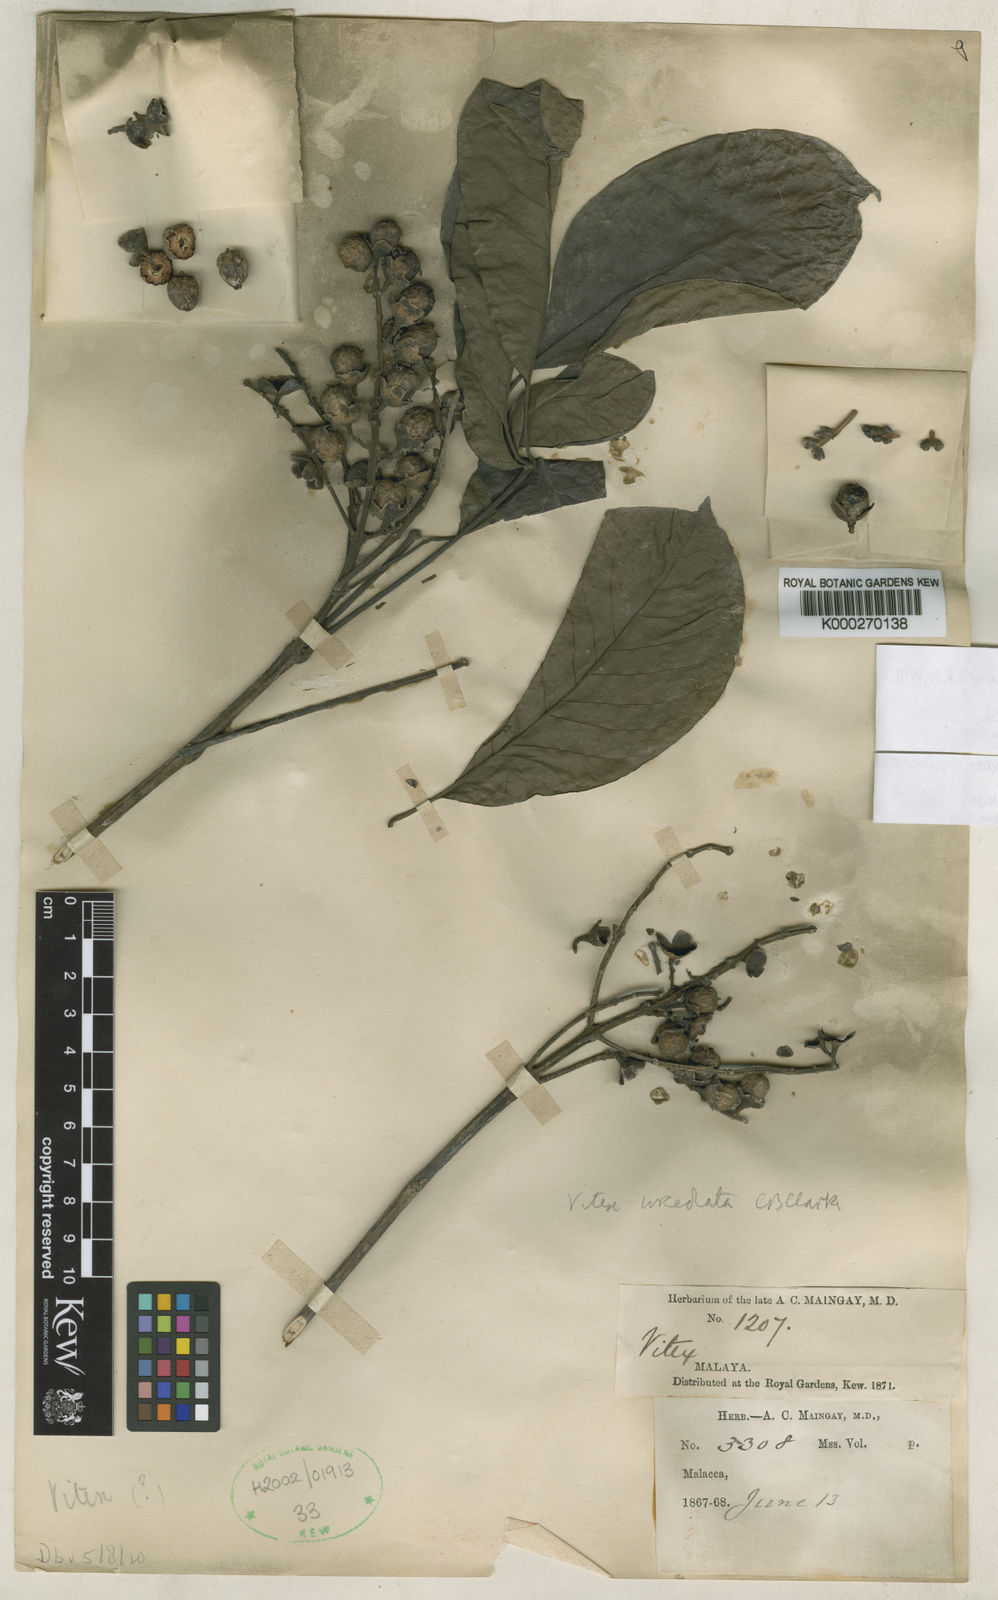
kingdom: Plantae
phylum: Tracheophyta
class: Magnoliopsida
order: Lamiales
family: Lamiaceae
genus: Vitex
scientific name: Vitex quinata
